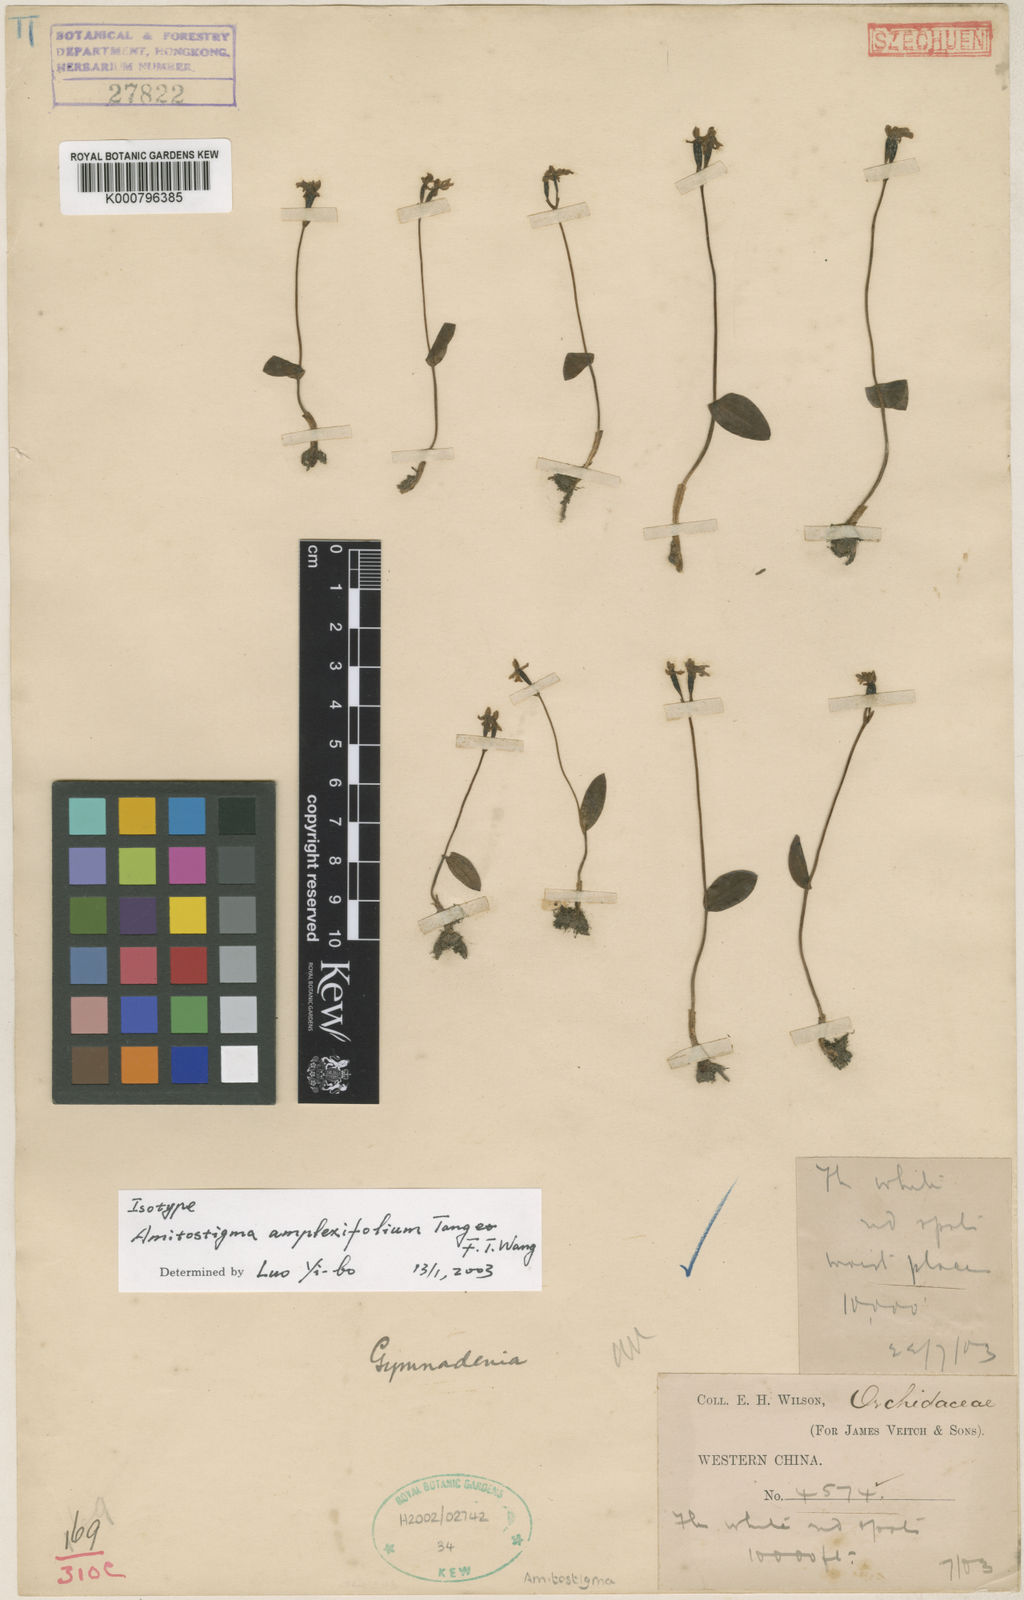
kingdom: Plantae
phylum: Tracheophyta
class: Liliopsida
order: Asparagales
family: Orchidaceae
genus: Hemipilia
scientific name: Hemipilia amplexifolia
